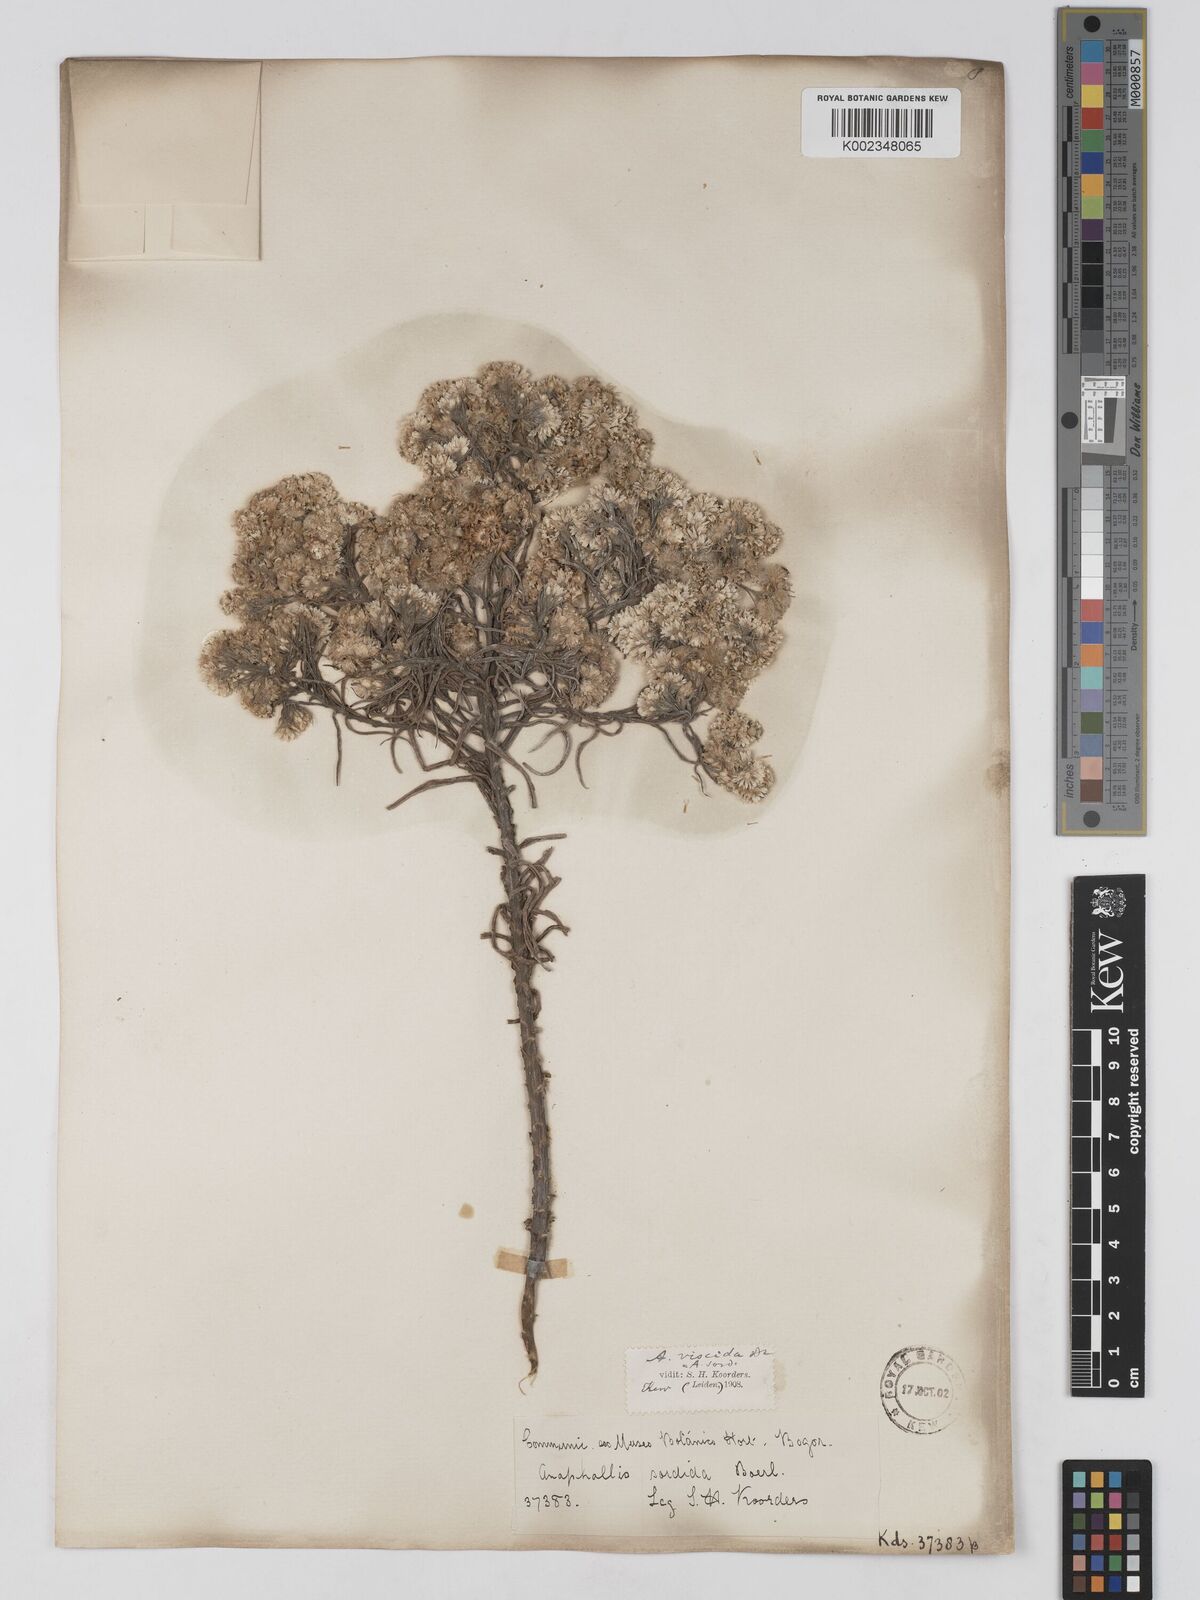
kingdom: Plantae
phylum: Tracheophyta
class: Magnoliopsida
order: Asterales
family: Asteraceae
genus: Anaphalis
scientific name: Anaphalis viscida
